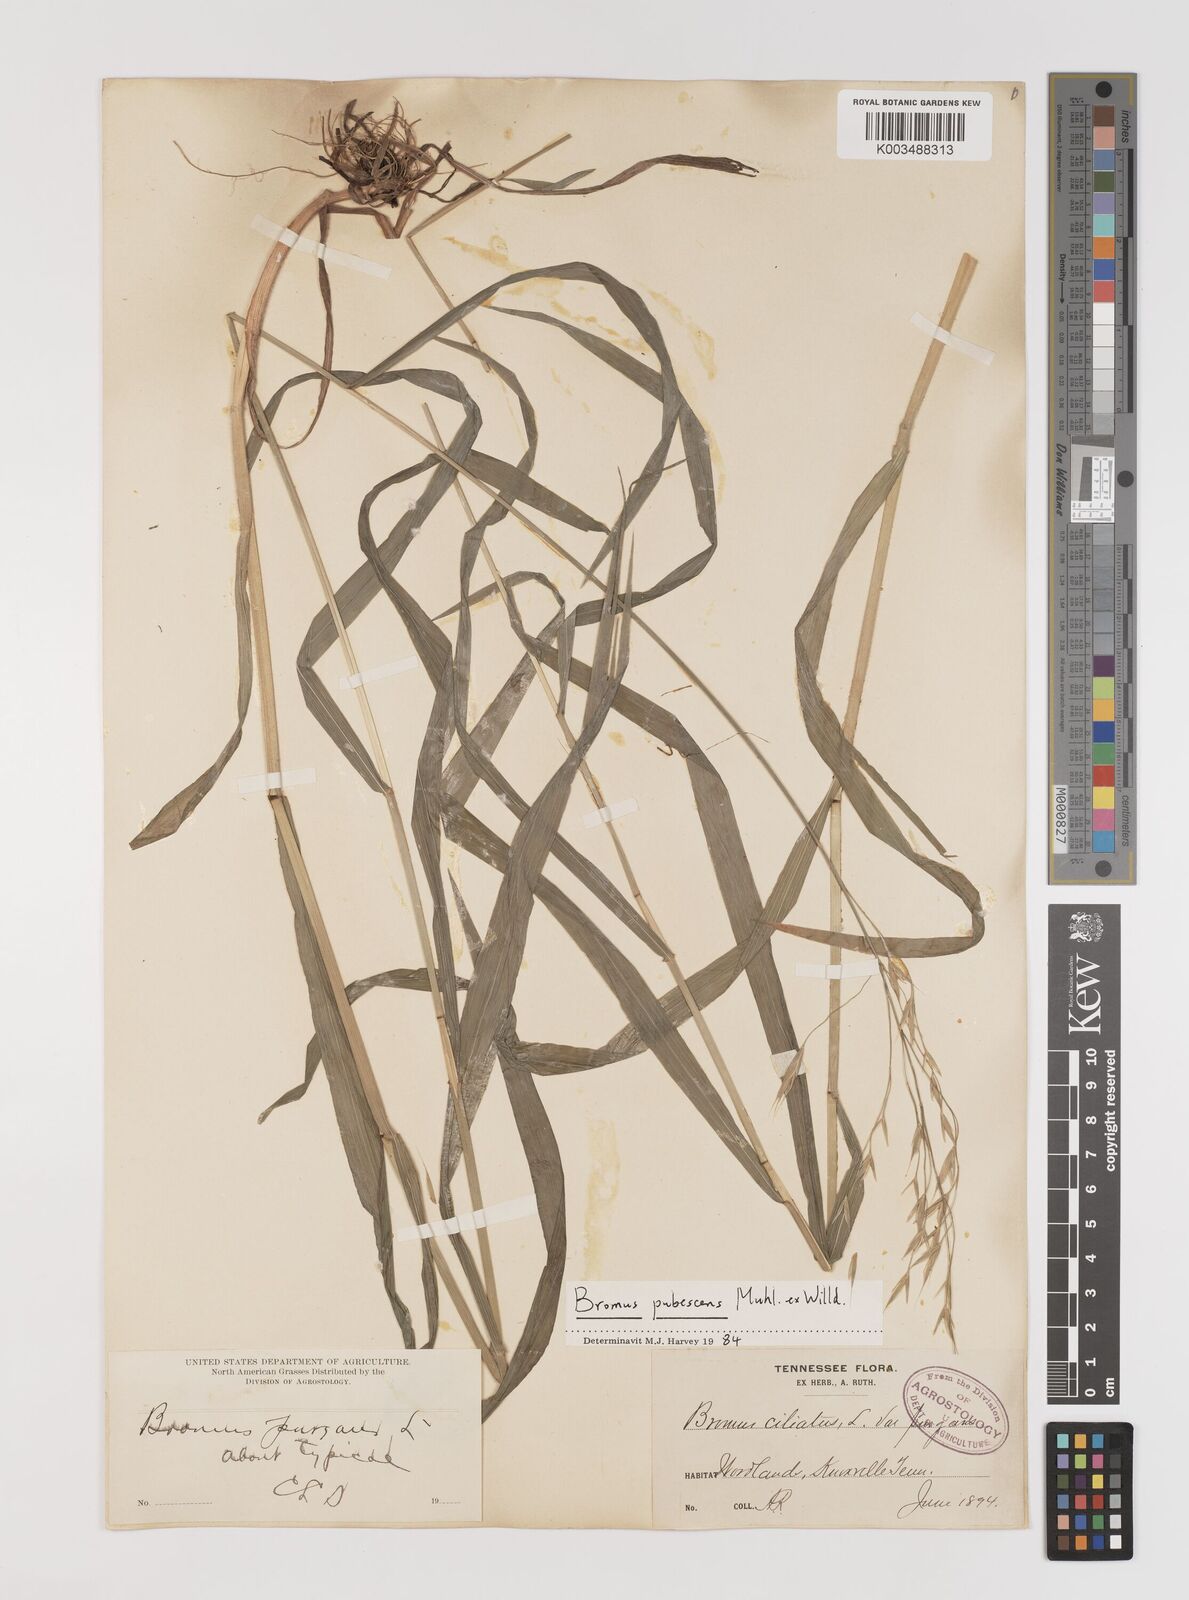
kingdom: Plantae
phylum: Tracheophyta
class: Liliopsida
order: Poales
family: Poaceae
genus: Bromus
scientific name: Bromus pubescens
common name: Hairy wood brome grass
